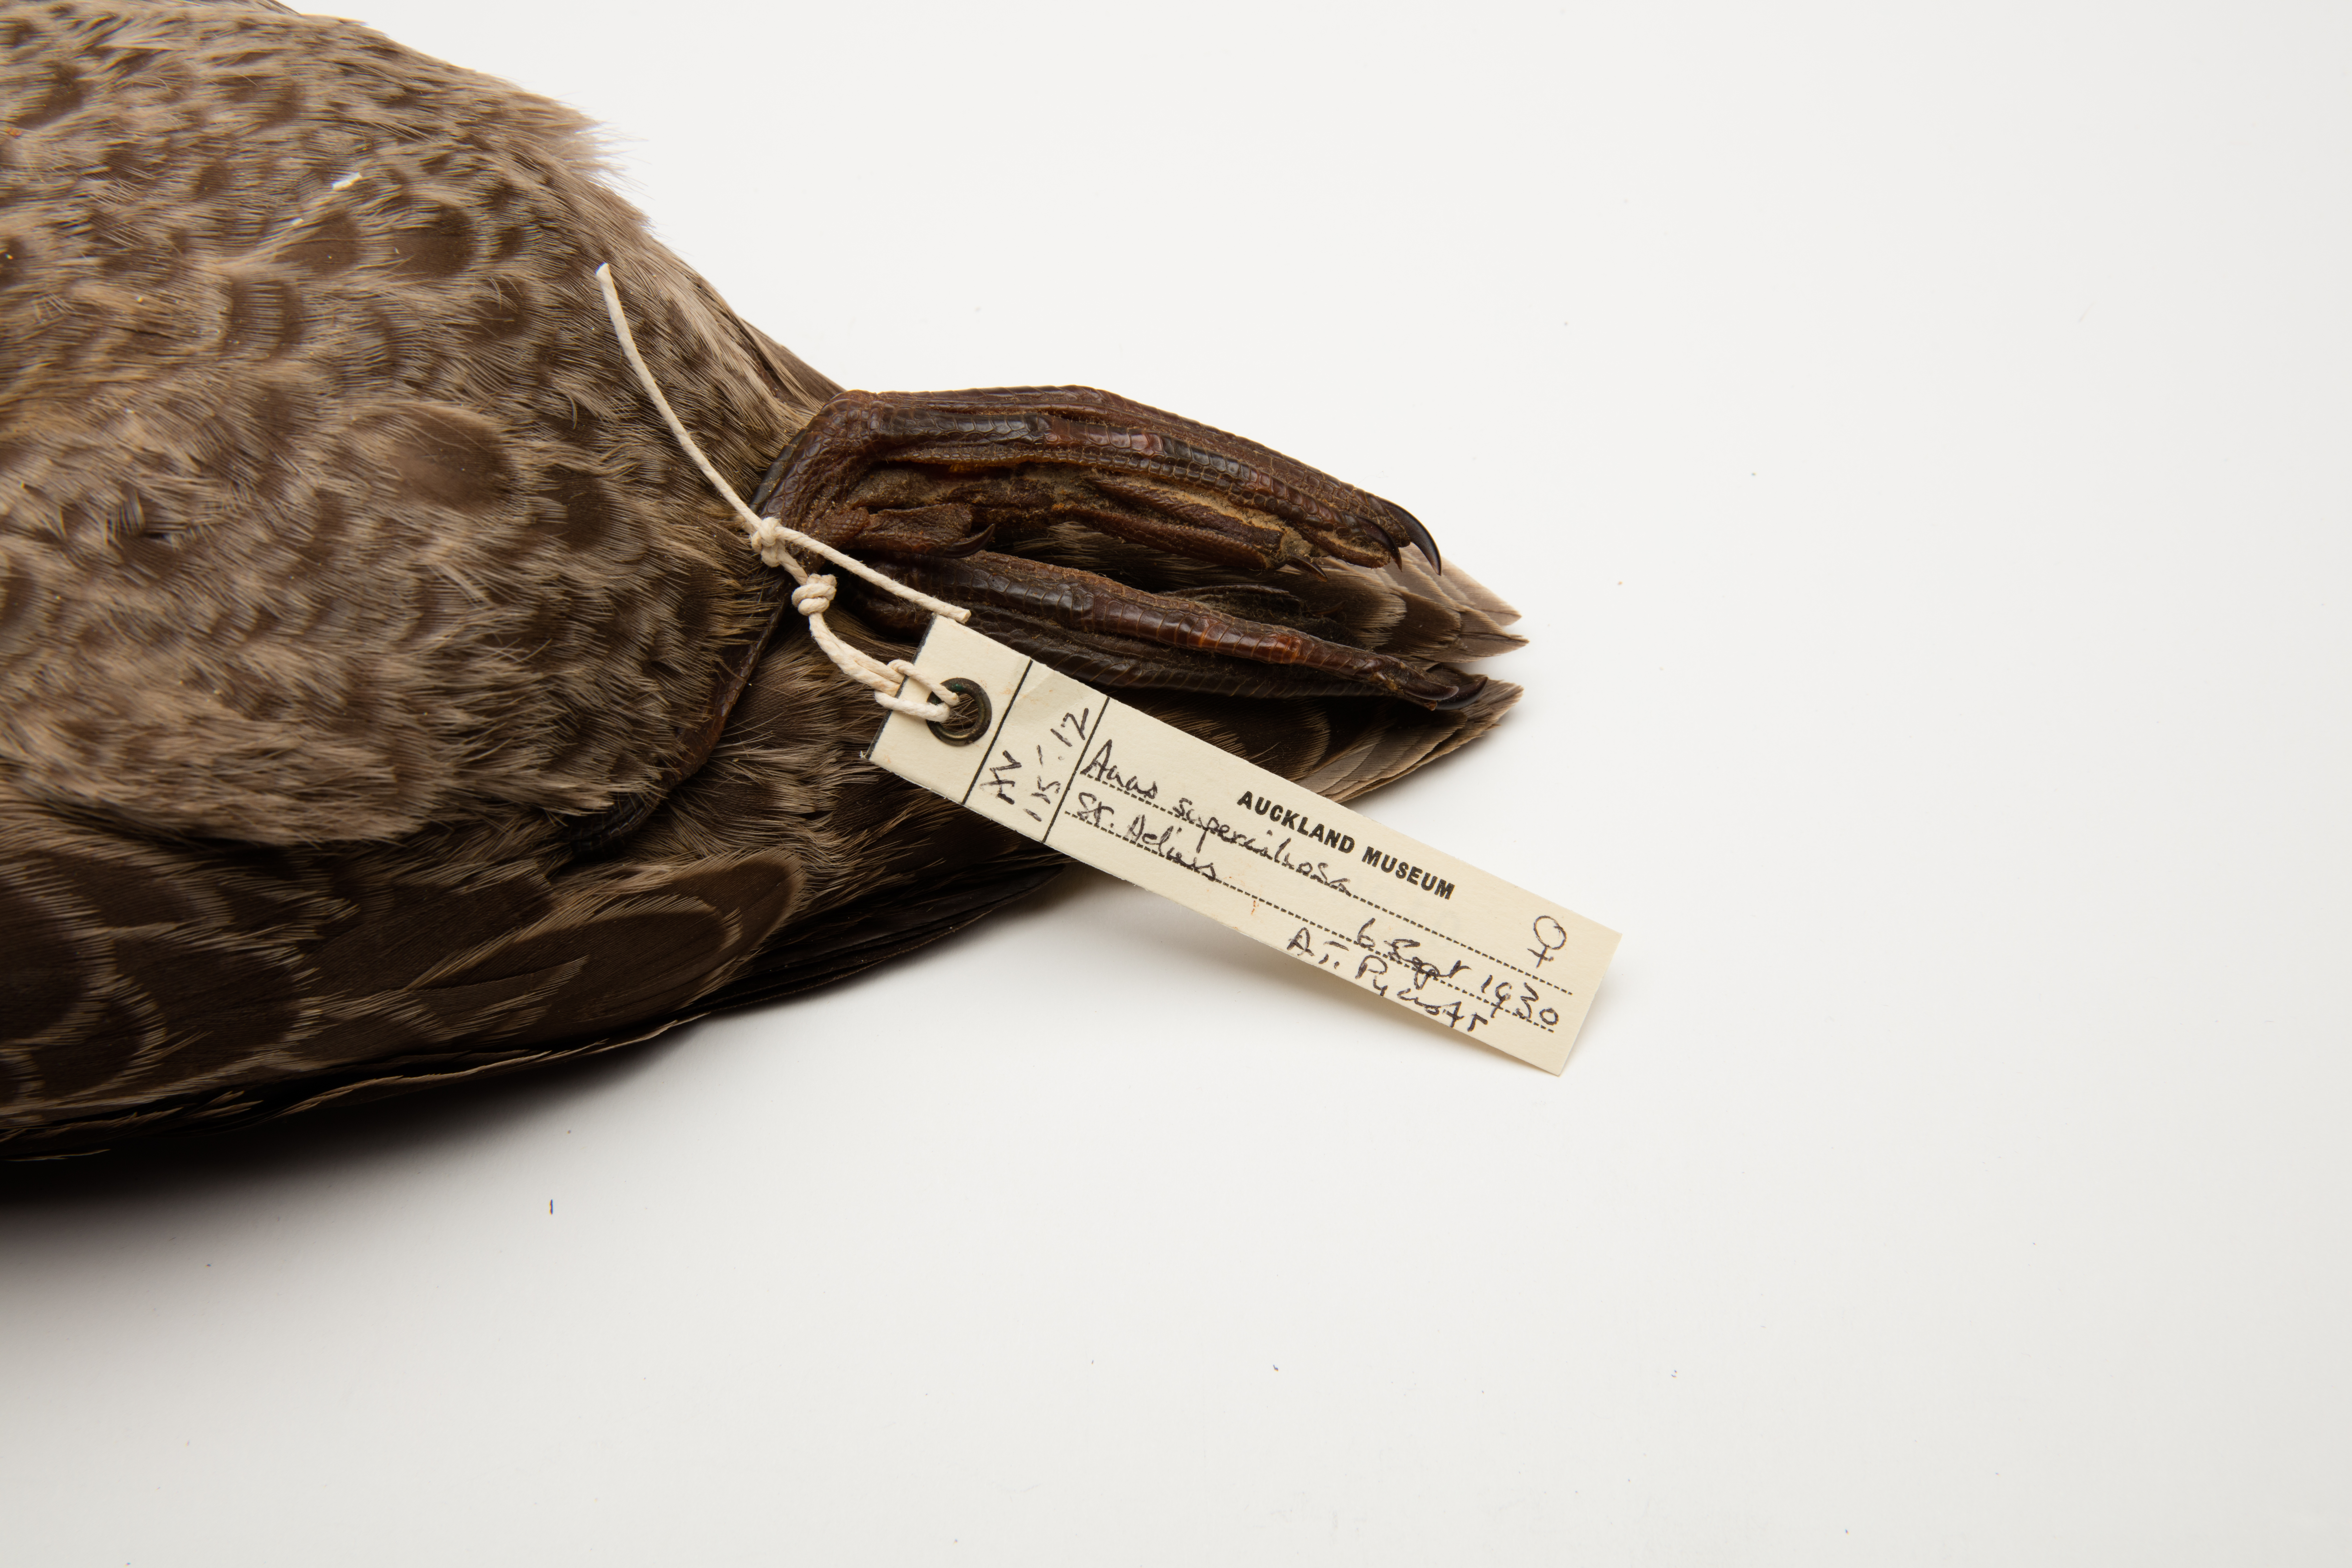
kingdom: Animalia
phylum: Chordata
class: Aves
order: Anseriformes
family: Anatidae
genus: Anas
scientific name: Anas superciliosa
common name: Pacific black duck
